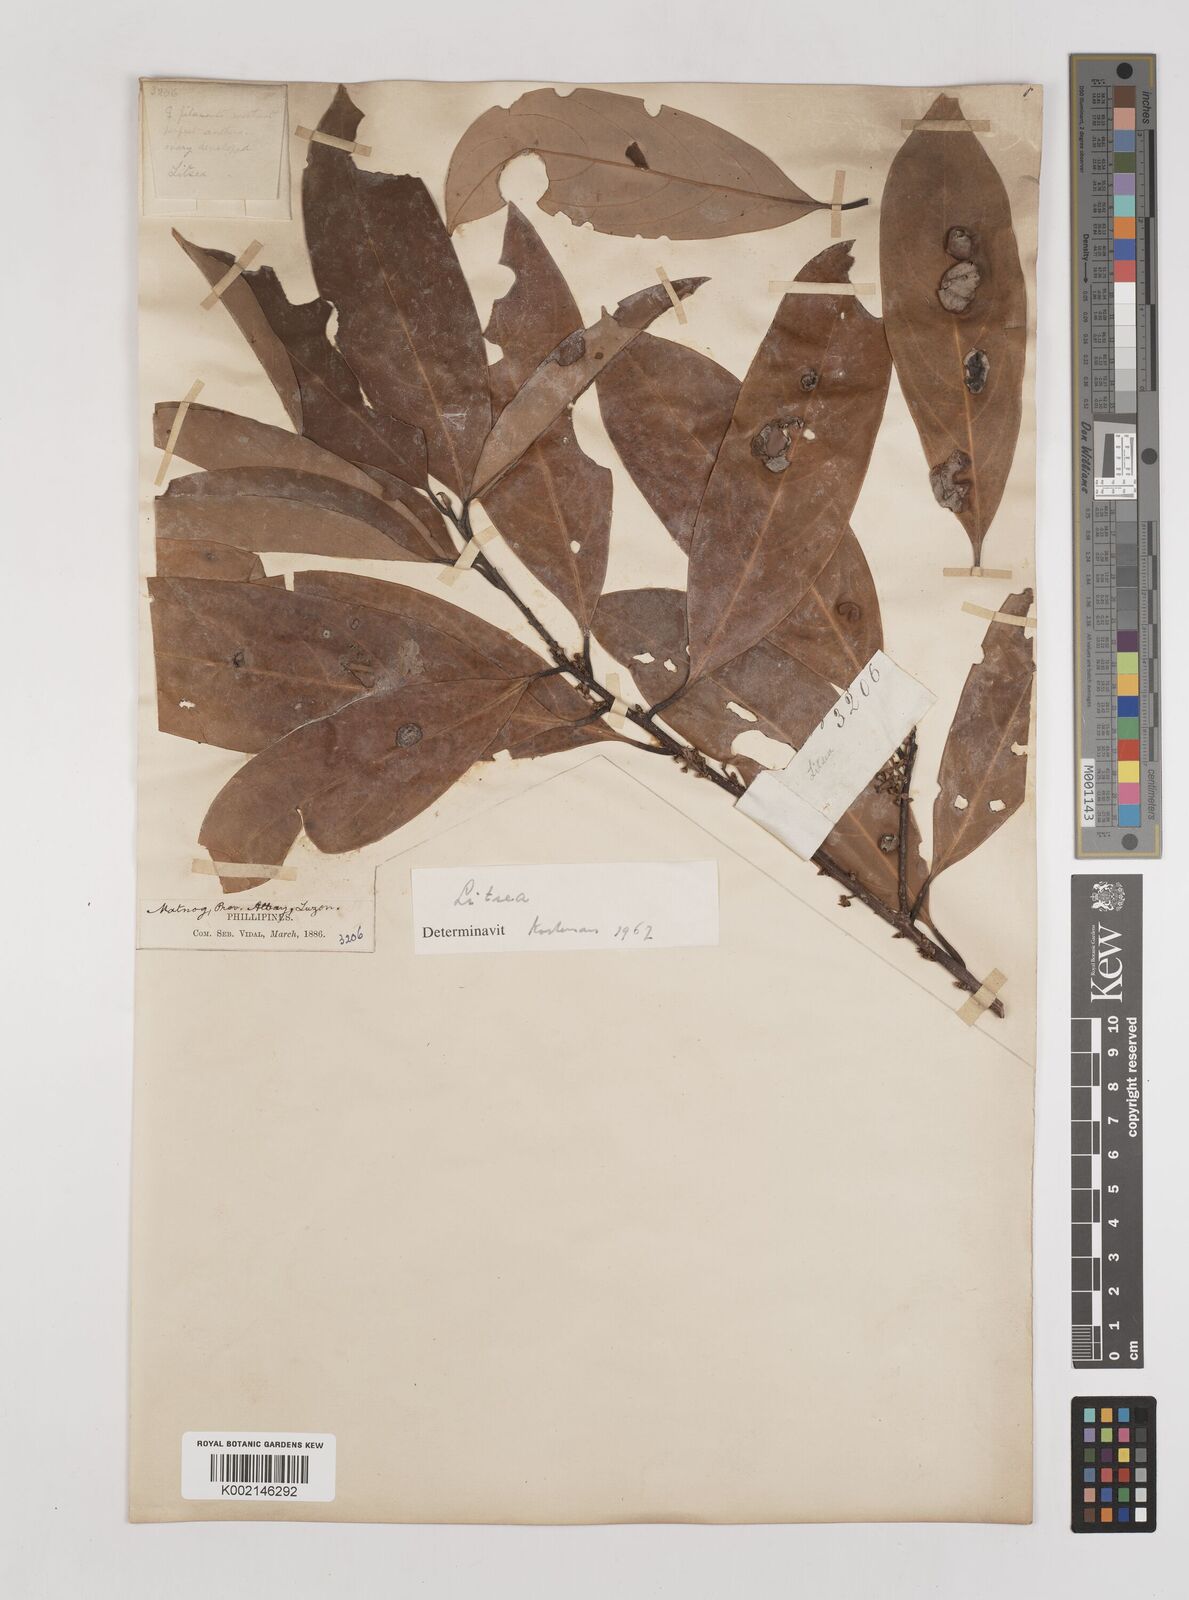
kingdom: Plantae
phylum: Tracheophyta
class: Magnoliopsida
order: Laurales
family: Lauraceae
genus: Litsea
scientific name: Litsea
